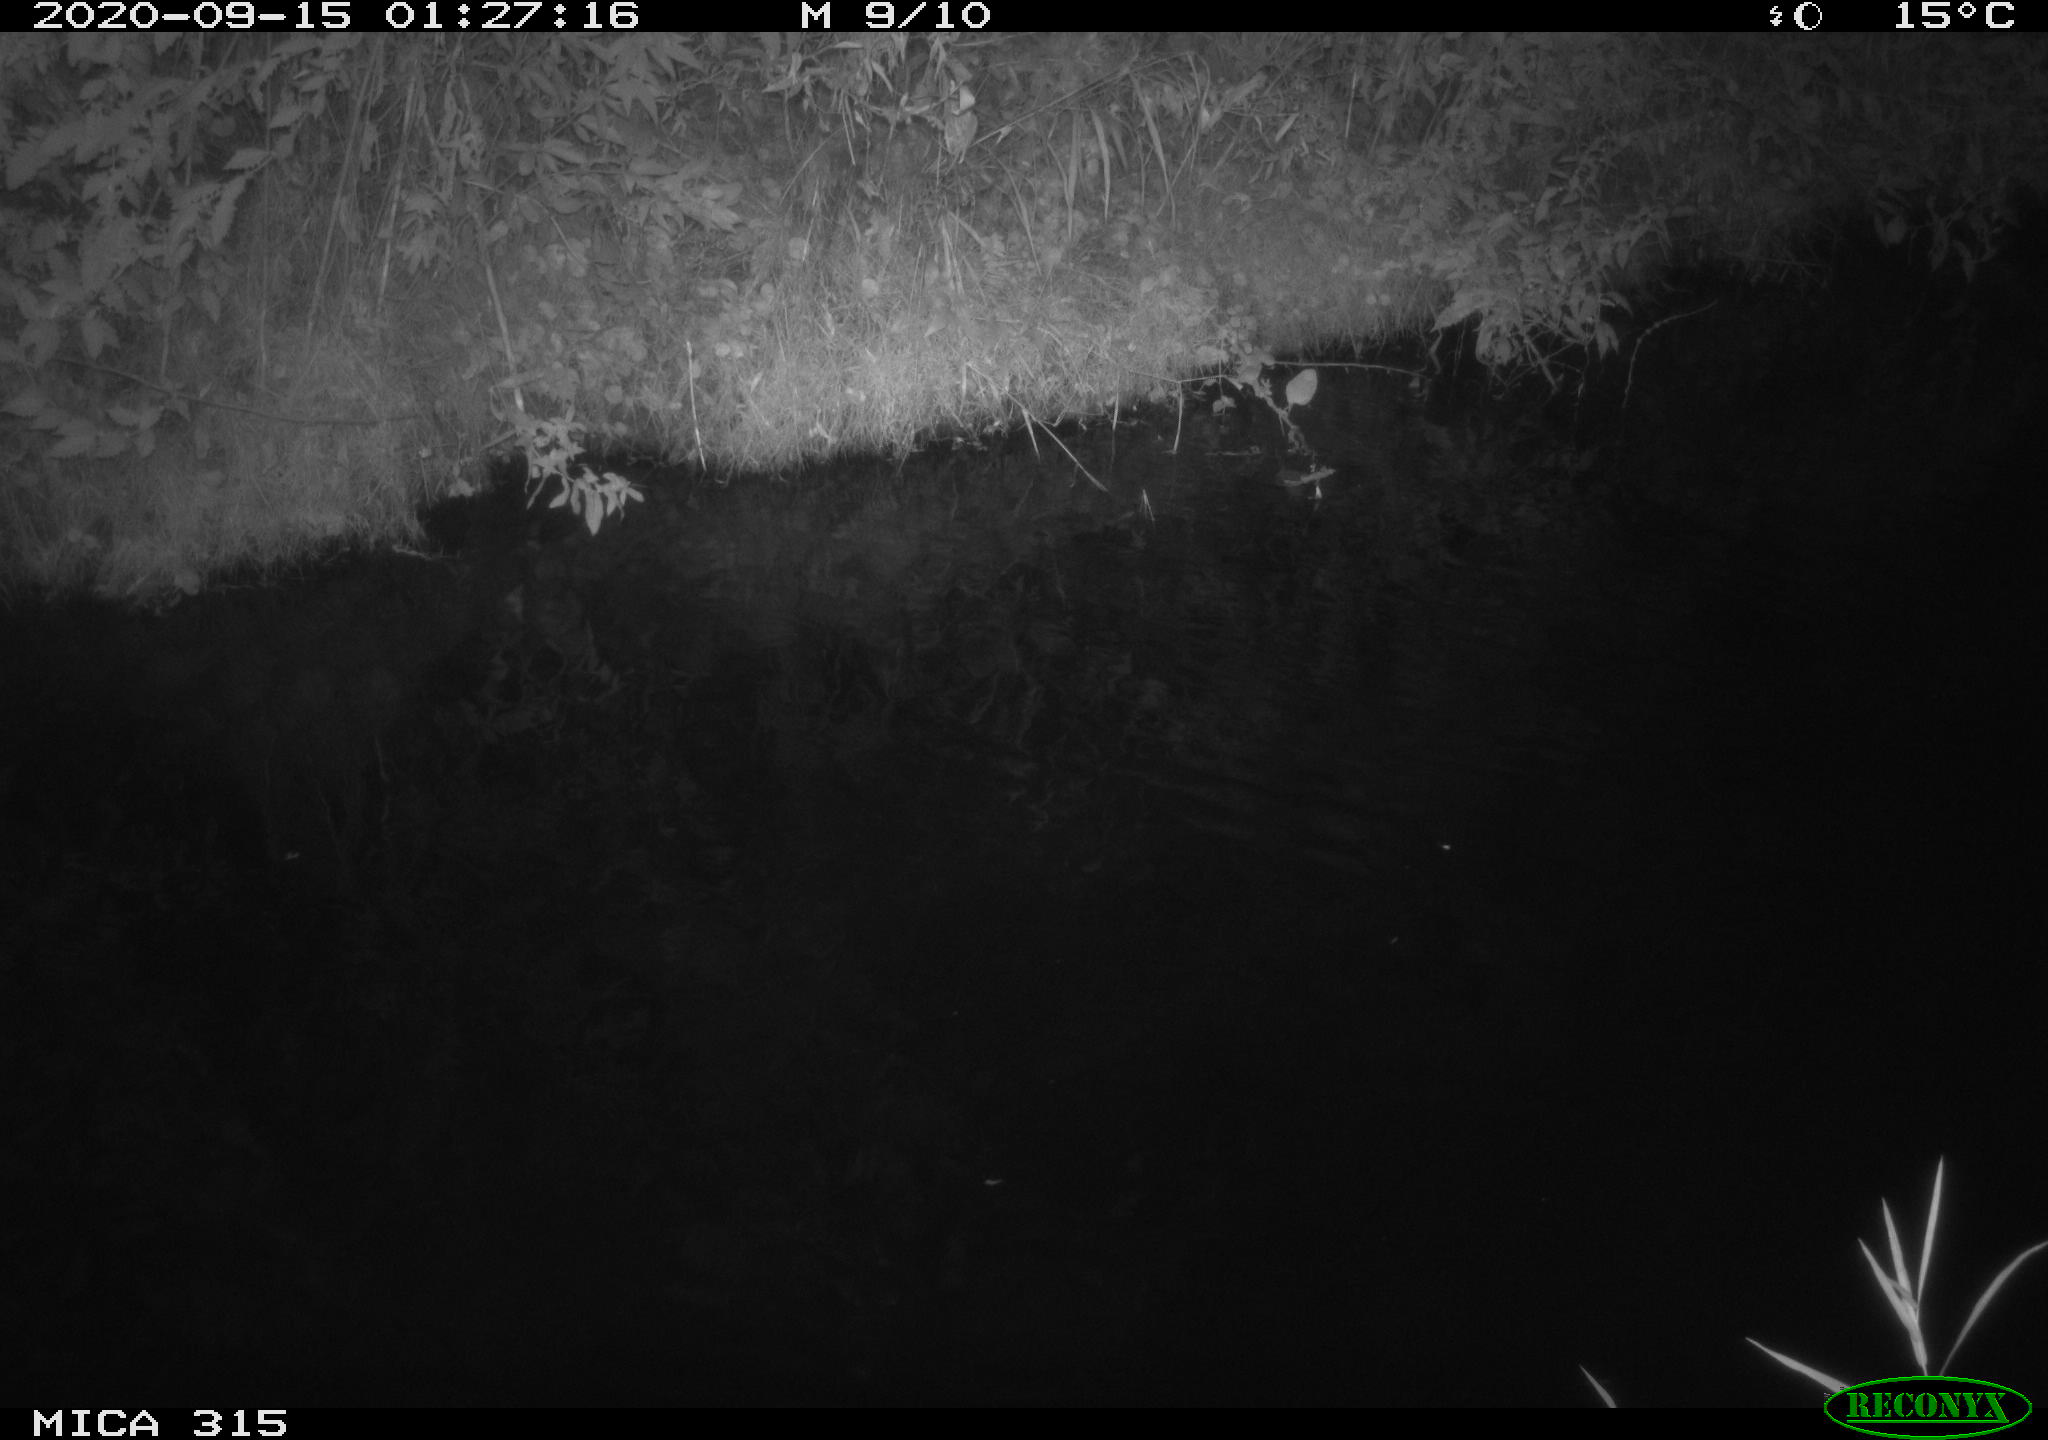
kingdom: Animalia
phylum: Chordata
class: Aves
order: Anseriformes
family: Anatidae
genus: Anas
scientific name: Anas platyrhynchos
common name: Mallard
